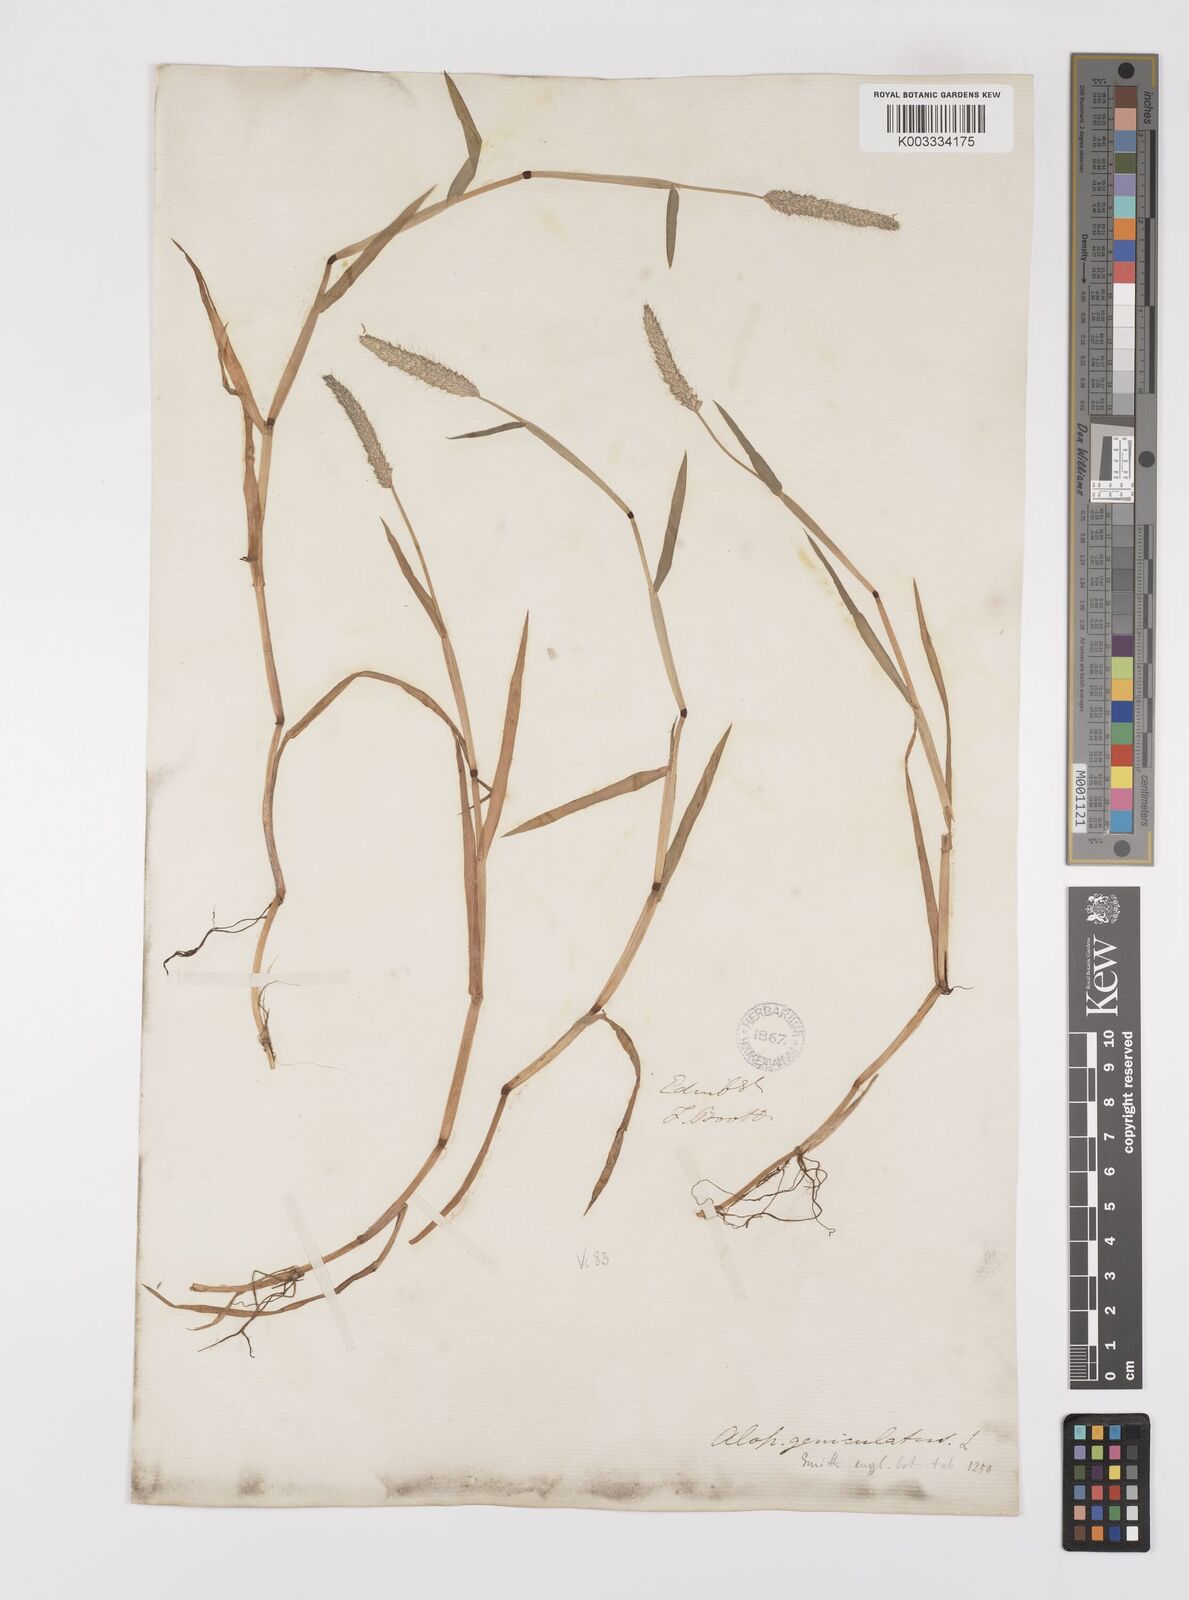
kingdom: Plantae
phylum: Tracheophyta
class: Liliopsida
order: Poales
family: Poaceae
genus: Alopecurus
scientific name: Alopecurus geniculatus
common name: Water foxtail
